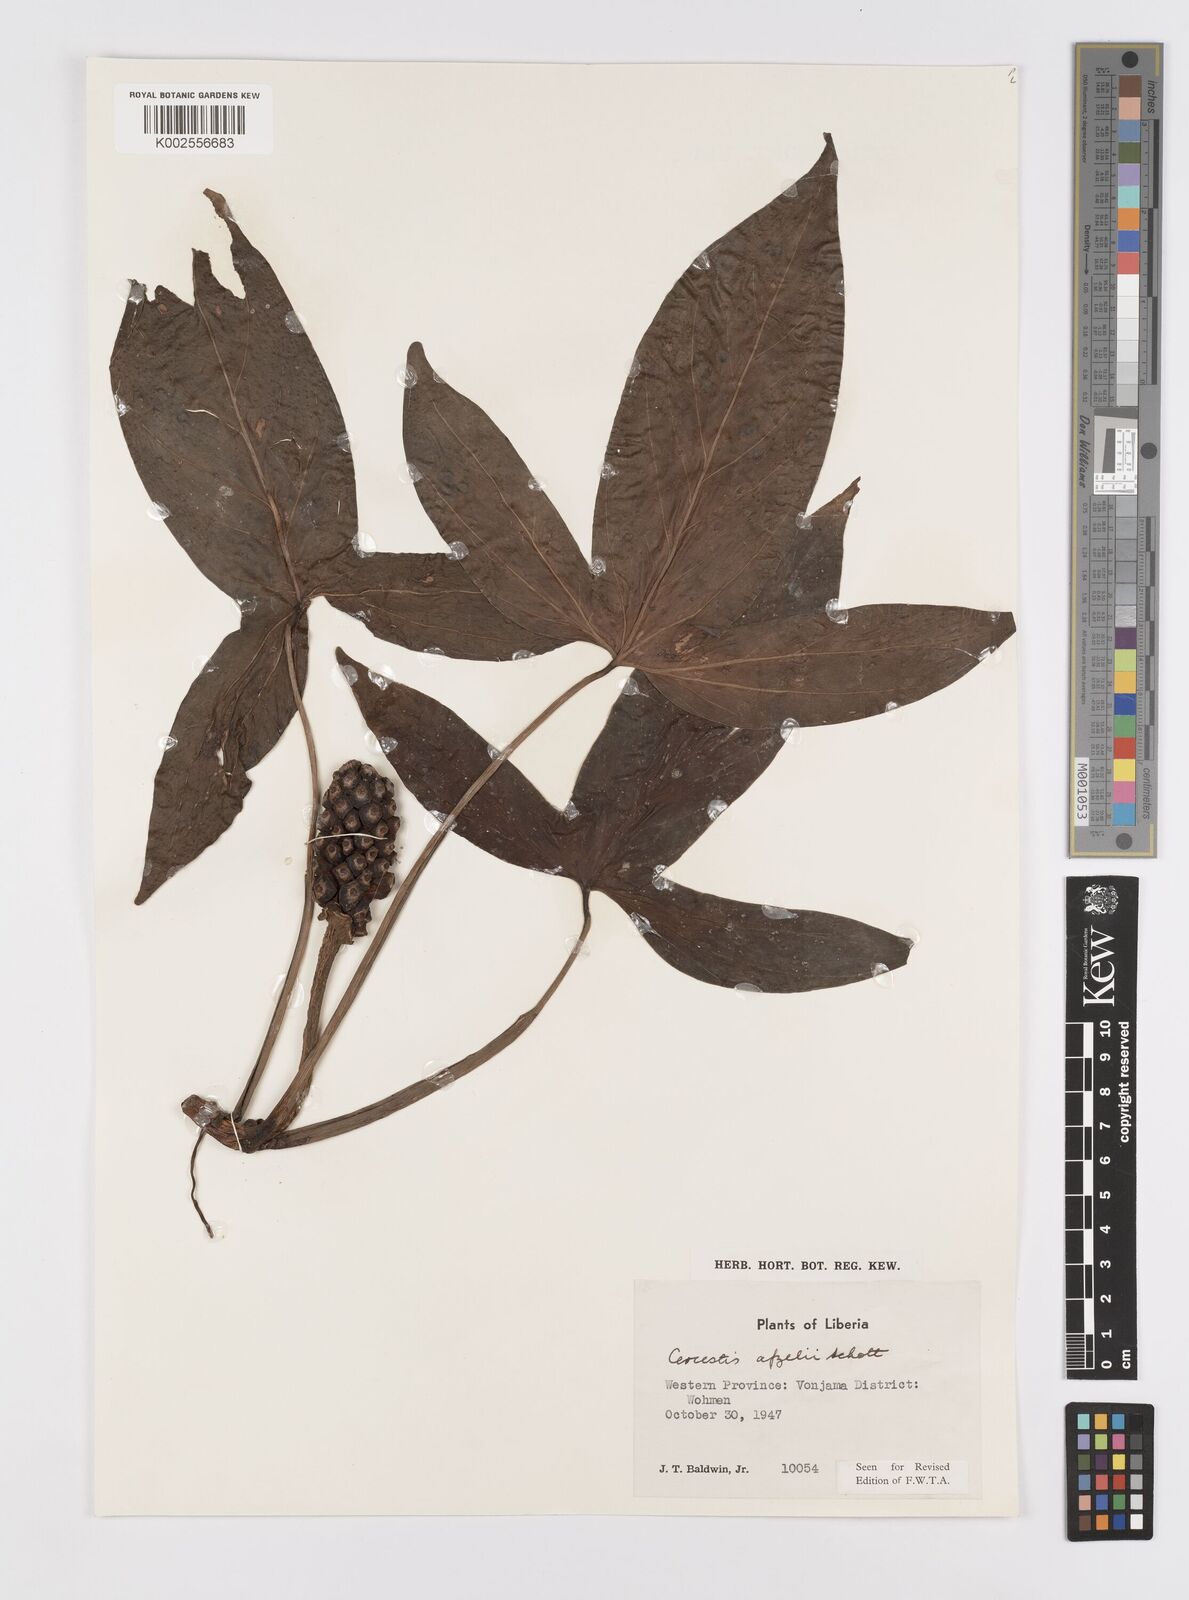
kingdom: Plantae
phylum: Tracheophyta
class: Liliopsida
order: Alismatales
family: Araceae
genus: Cercestis
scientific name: Cercestis afzelii
